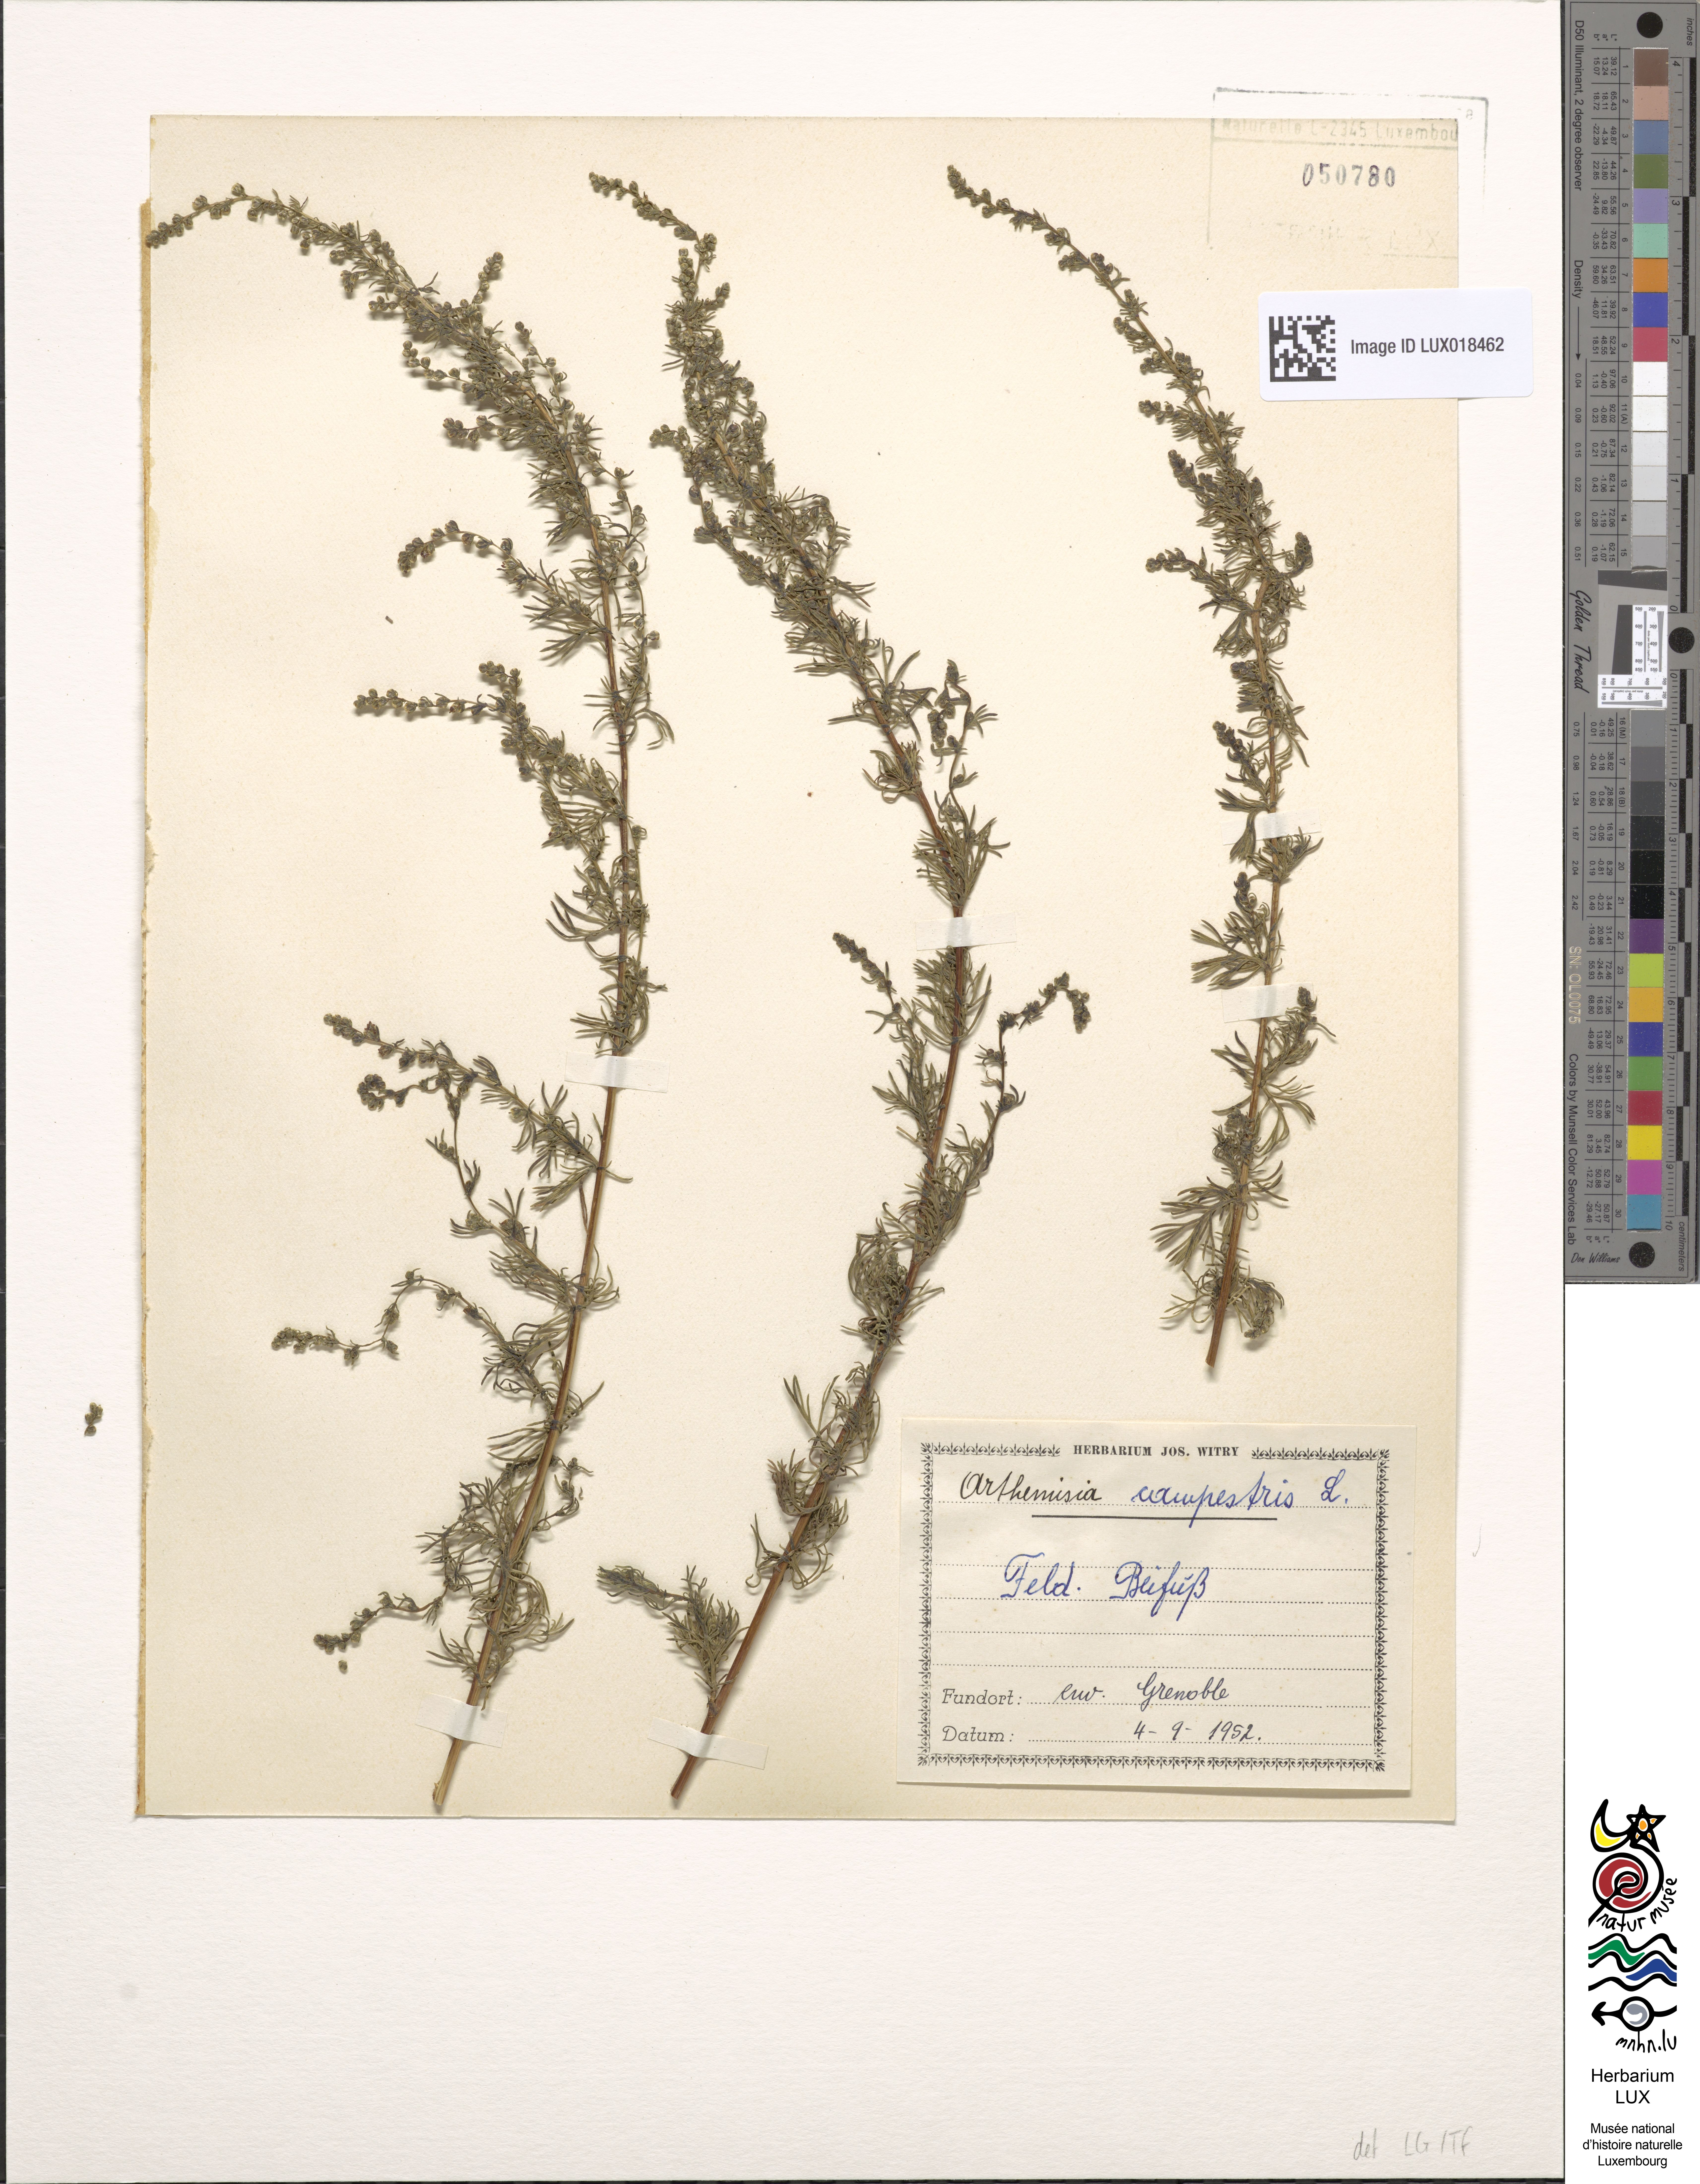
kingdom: Plantae
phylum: Tracheophyta
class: Magnoliopsida
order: Asterales
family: Asteraceae
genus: Artemisia
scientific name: Artemisia campestris
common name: Field wormwood
